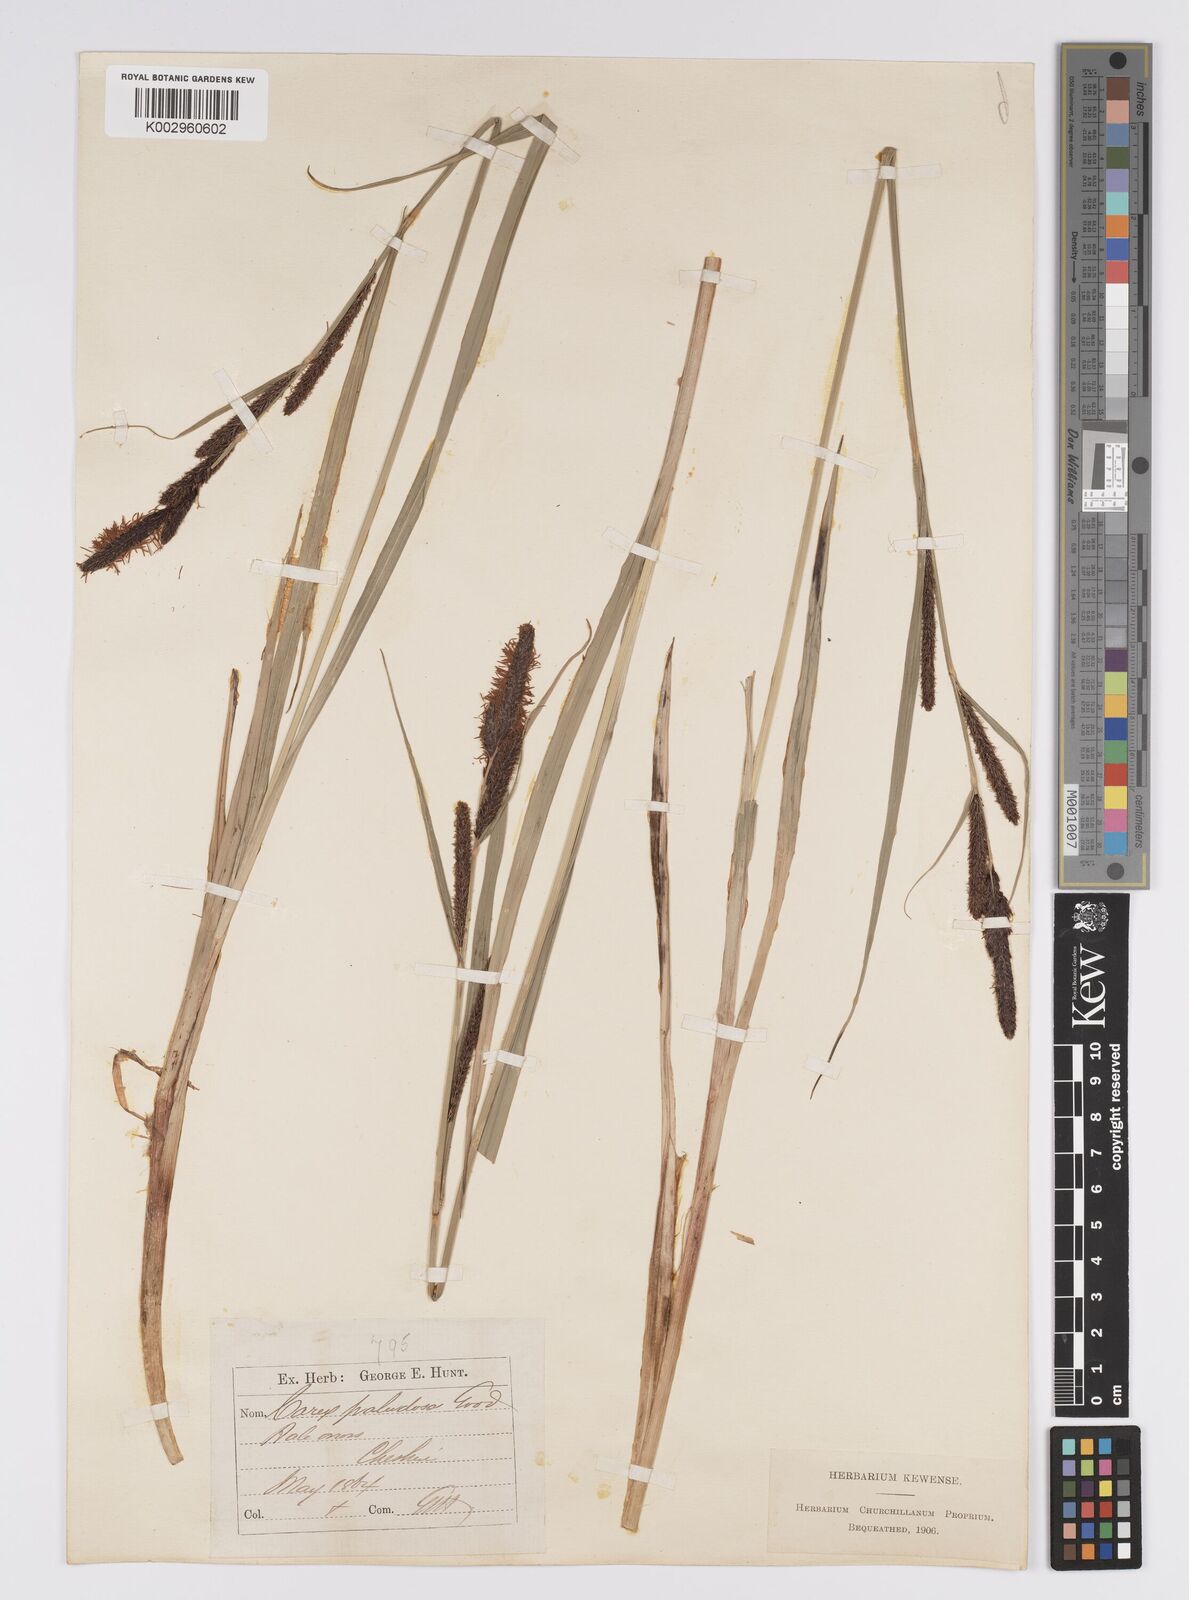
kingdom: Plantae
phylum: Tracheophyta
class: Liliopsida
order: Poales
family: Cyperaceae
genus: Carex
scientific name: Carex acutiformis
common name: Lesser pond-sedge
